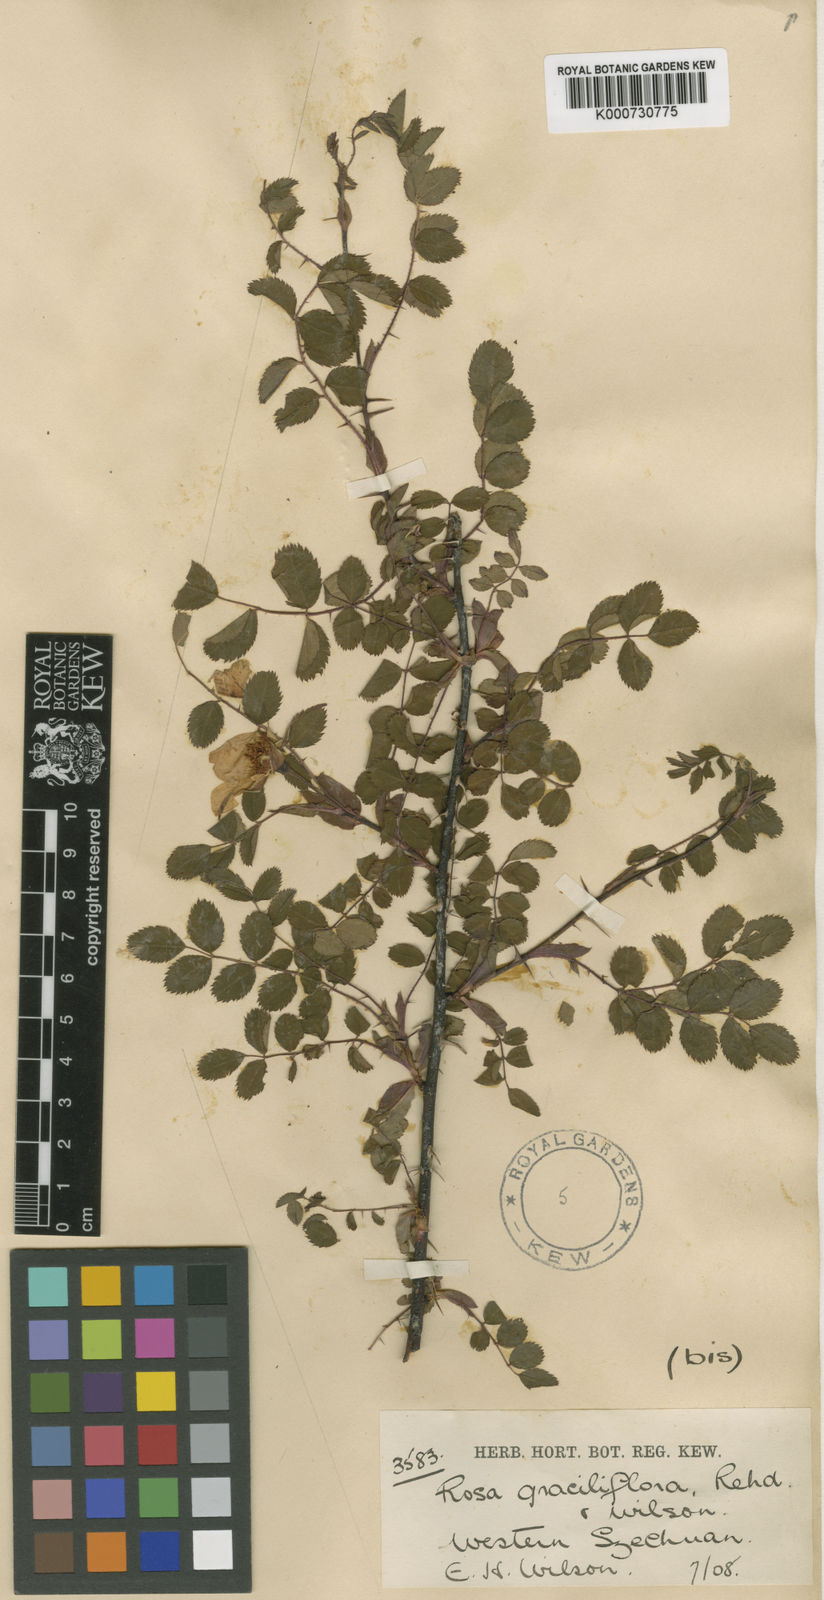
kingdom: Plantae
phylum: Tracheophyta
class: Magnoliopsida
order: Rosales
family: Rosaceae
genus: Rosa
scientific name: Rosa graciliflora
